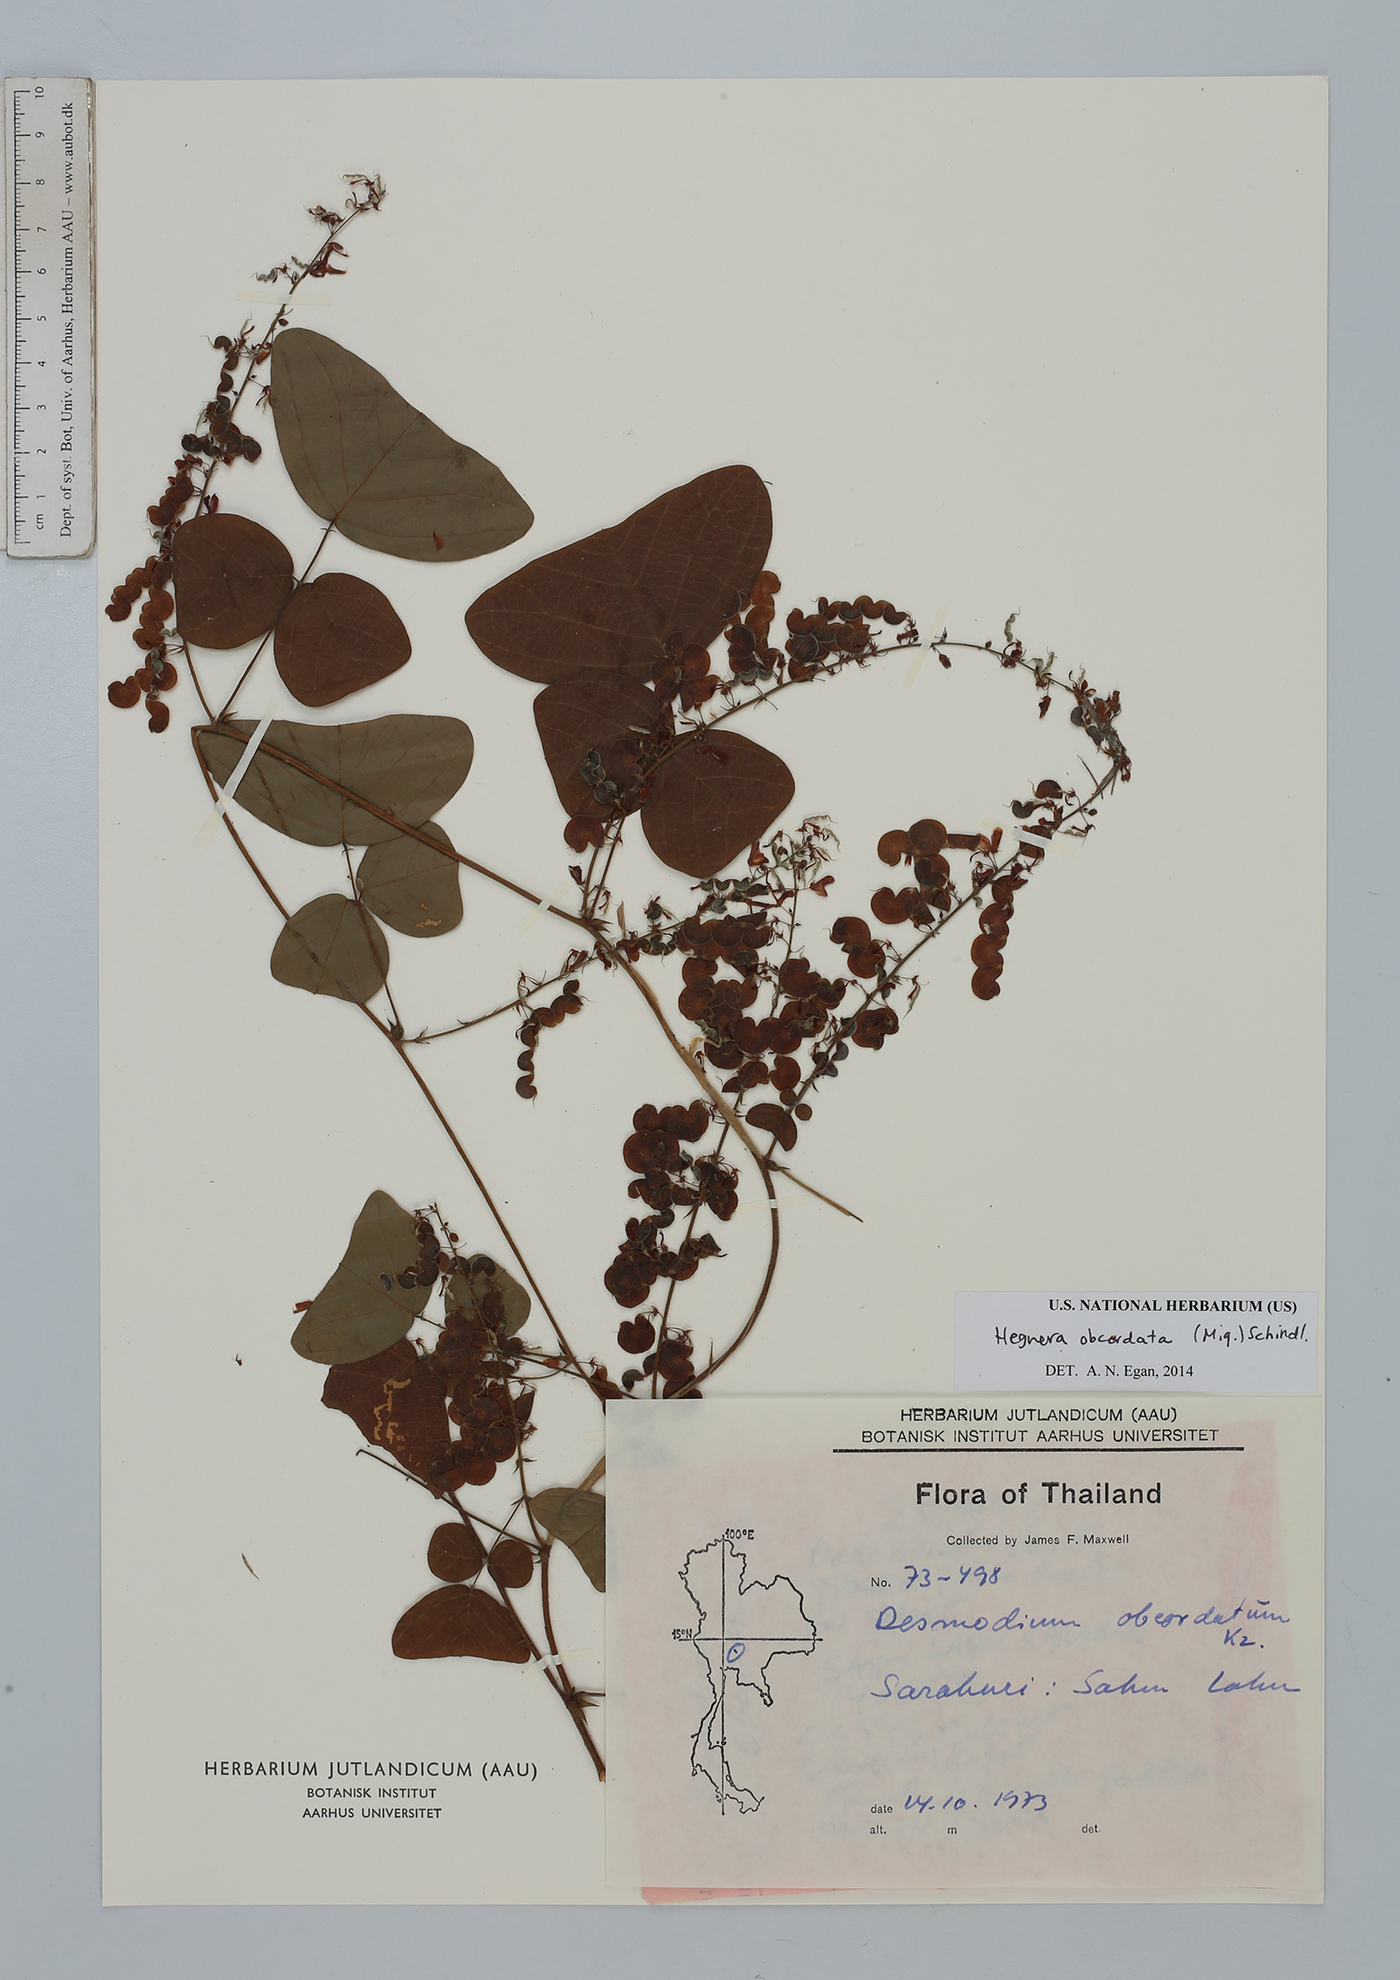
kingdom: Plantae
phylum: Tracheophyta
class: Magnoliopsida
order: Fabales
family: Fabaceae
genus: Hegnera
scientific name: Hegnera obcordata
